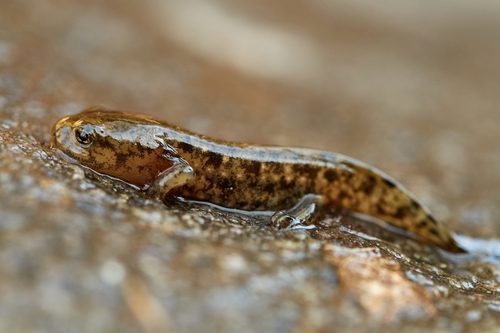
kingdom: Animalia
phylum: Chordata
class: Amphibia
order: Caudata
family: Salamandridae
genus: Salamandra
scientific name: Salamandra salamandra
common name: Fire salamander
